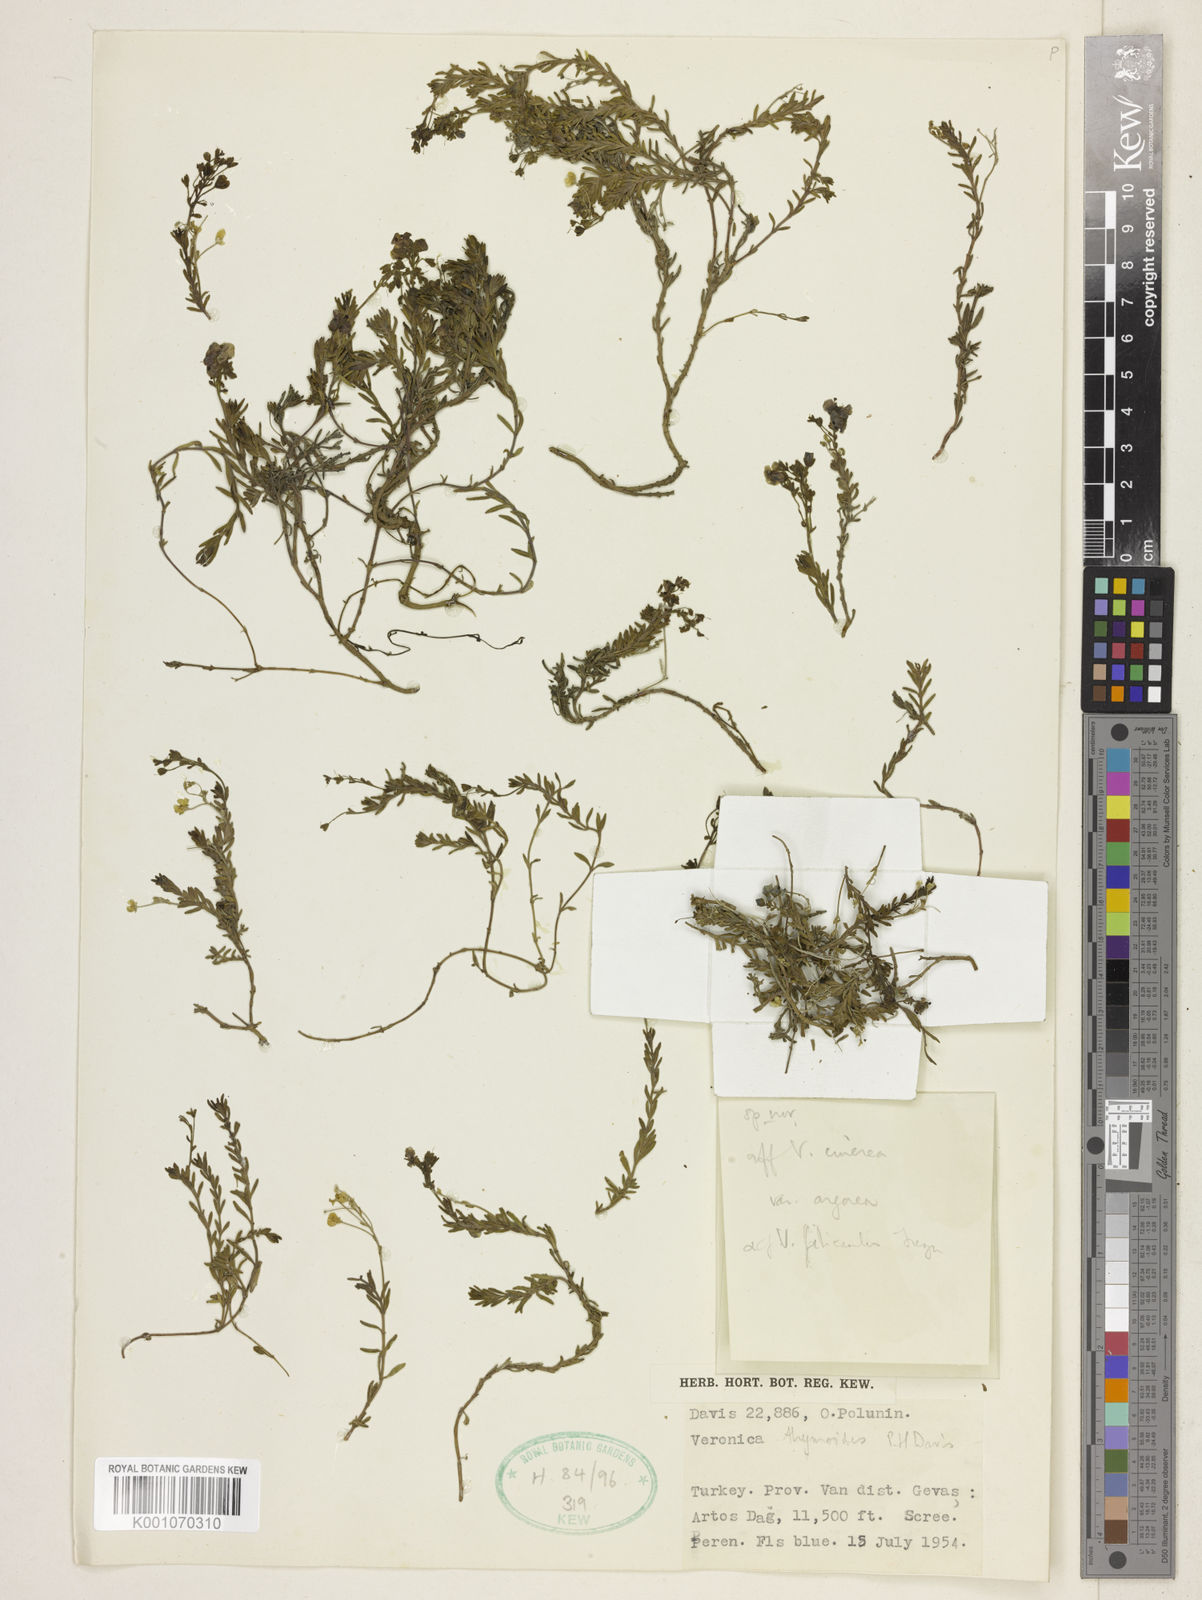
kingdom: Plantae
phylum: Tracheophyta
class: Magnoliopsida
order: Lamiales
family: Plantaginaceae
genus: Veronica
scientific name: Veronica thymoides
